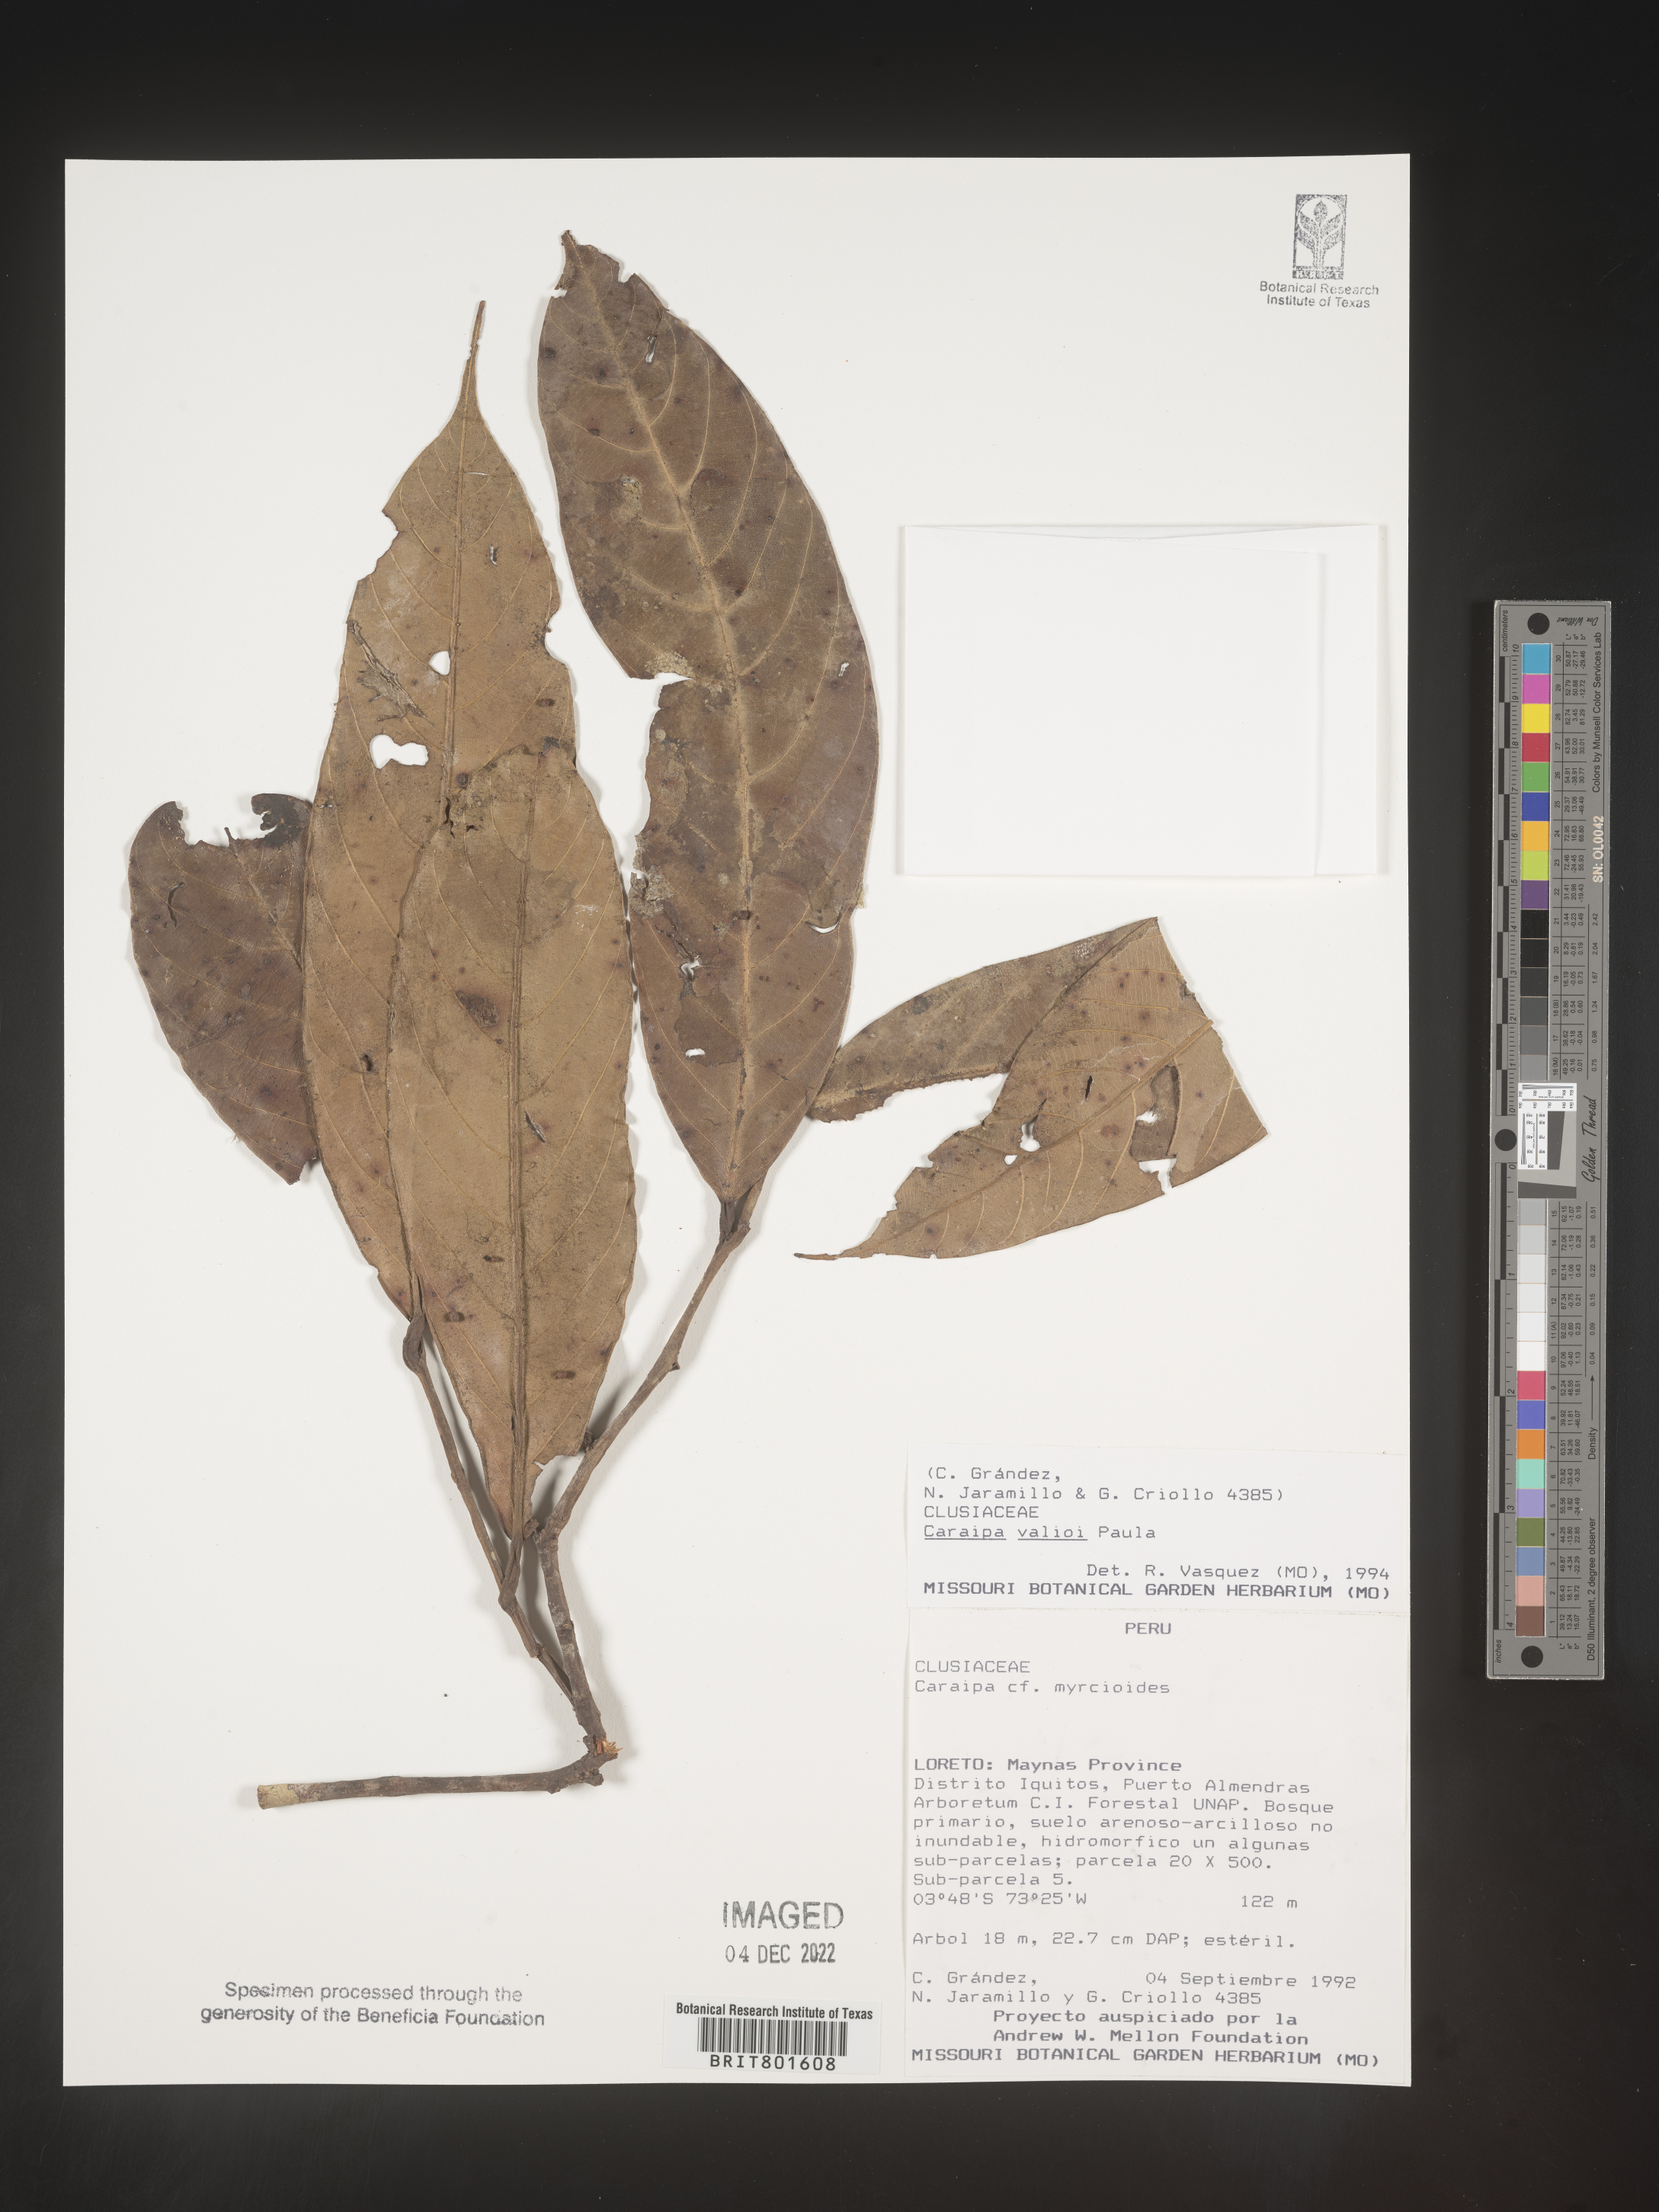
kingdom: Plantae
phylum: Tracheophyta
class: Magnoliopsida
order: Malpighiales
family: Calophyllaceae
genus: Caraipa
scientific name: Caraipa valioi
